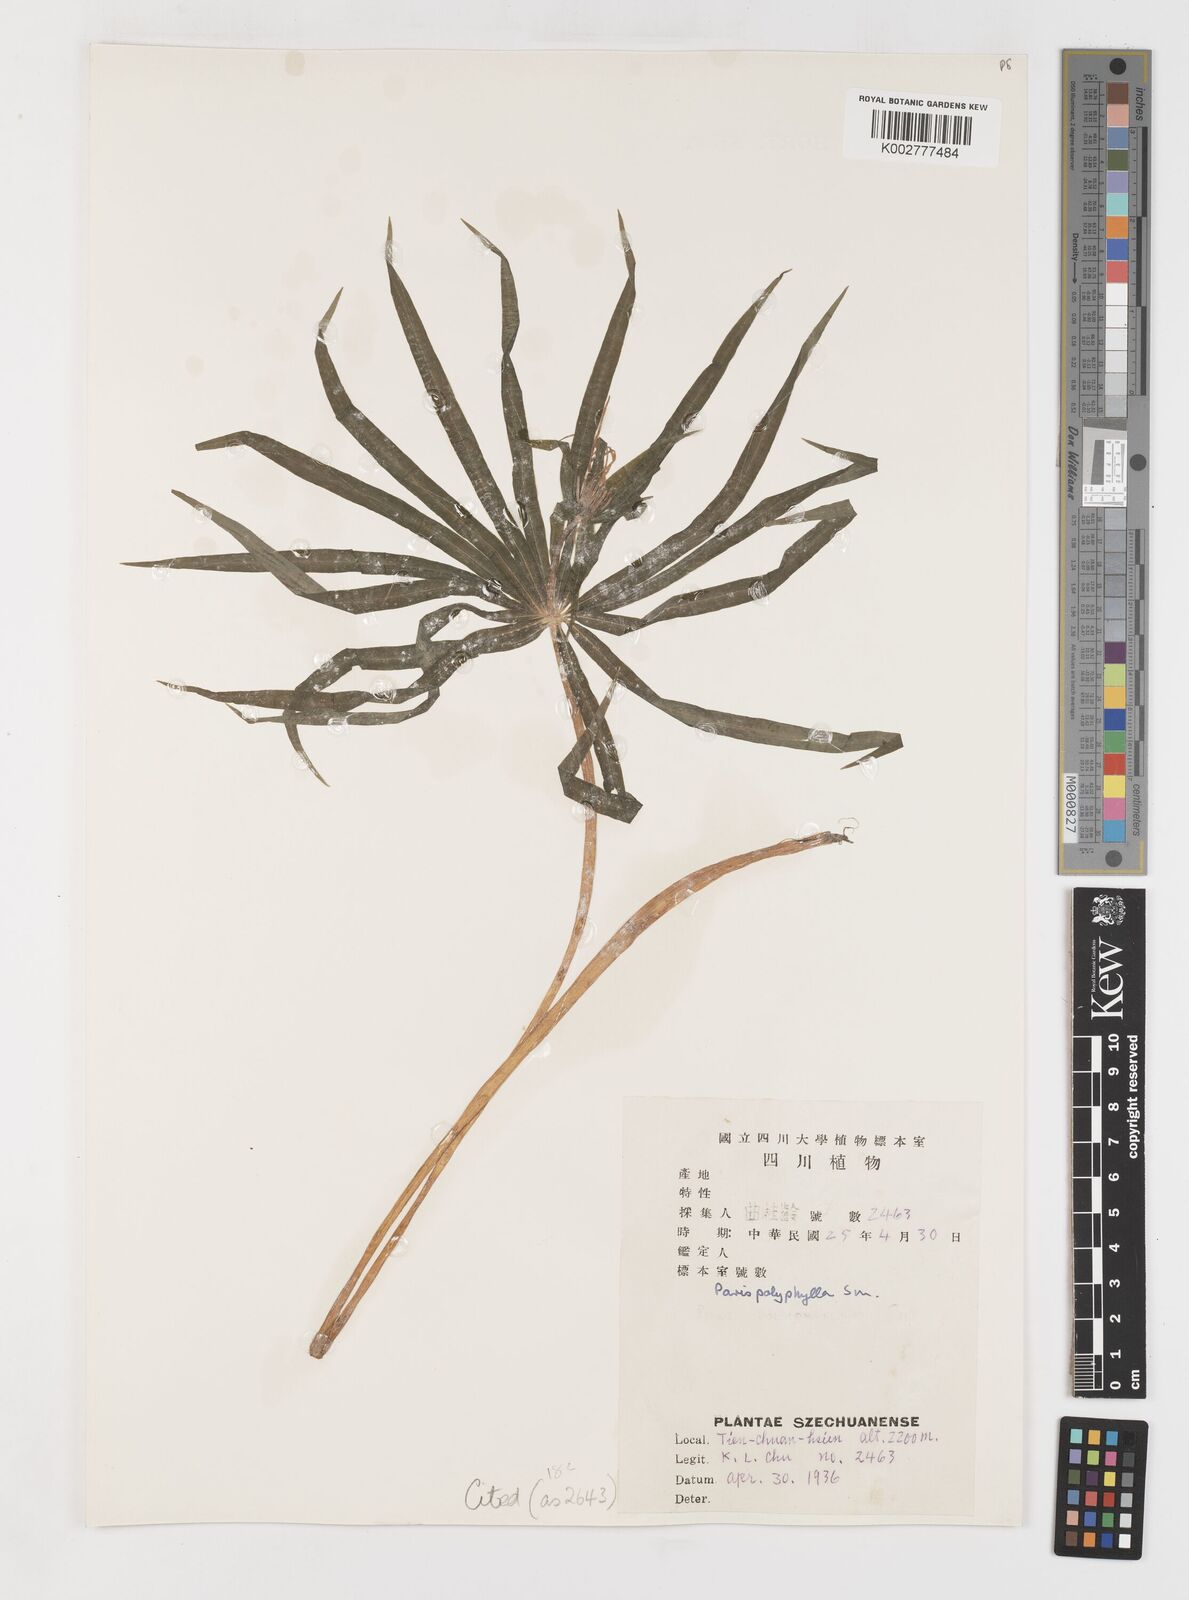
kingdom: Plantae
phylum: Tracheophyta
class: Liliopsida
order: Liliales
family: Melanthiaceae
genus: Paris
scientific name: Paris lancifolia
